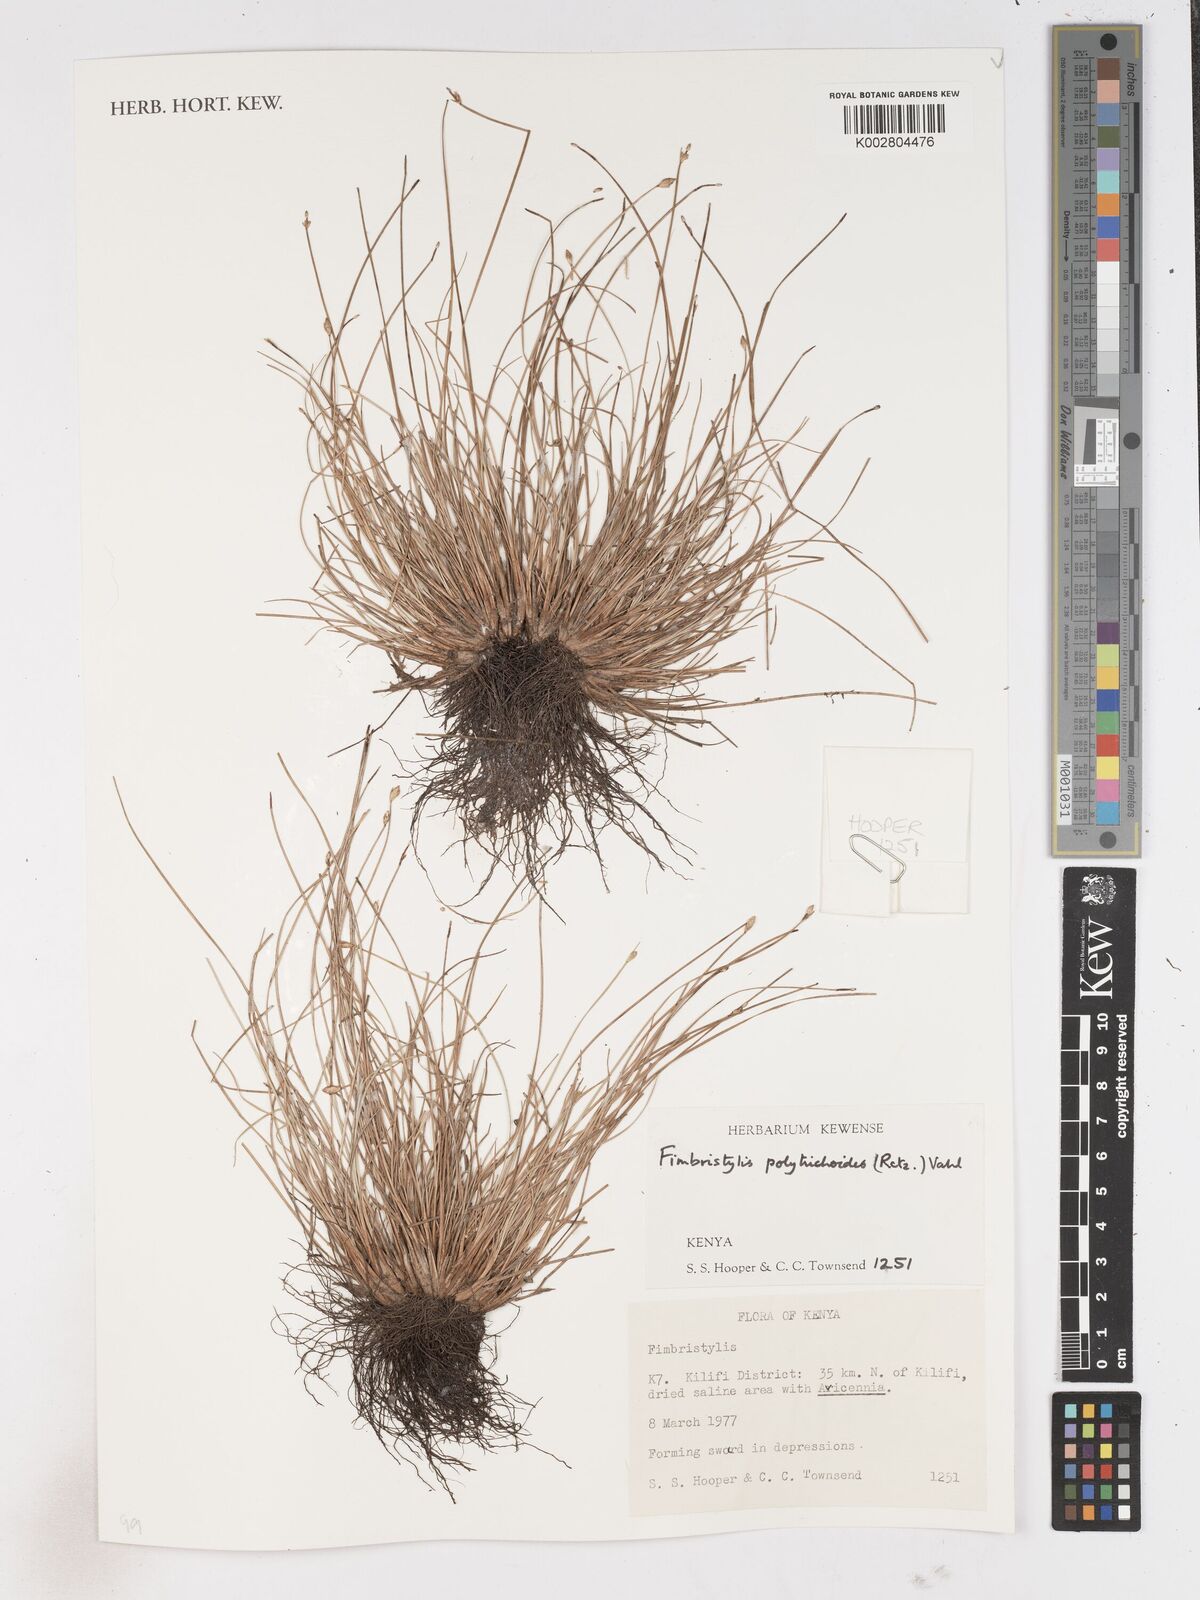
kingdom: Plantae
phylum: Tracheophyta
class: Liliopsida
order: Poales
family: Cyperaceae
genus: Fimbristylis
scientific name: Fimbristylis polytrichoides
